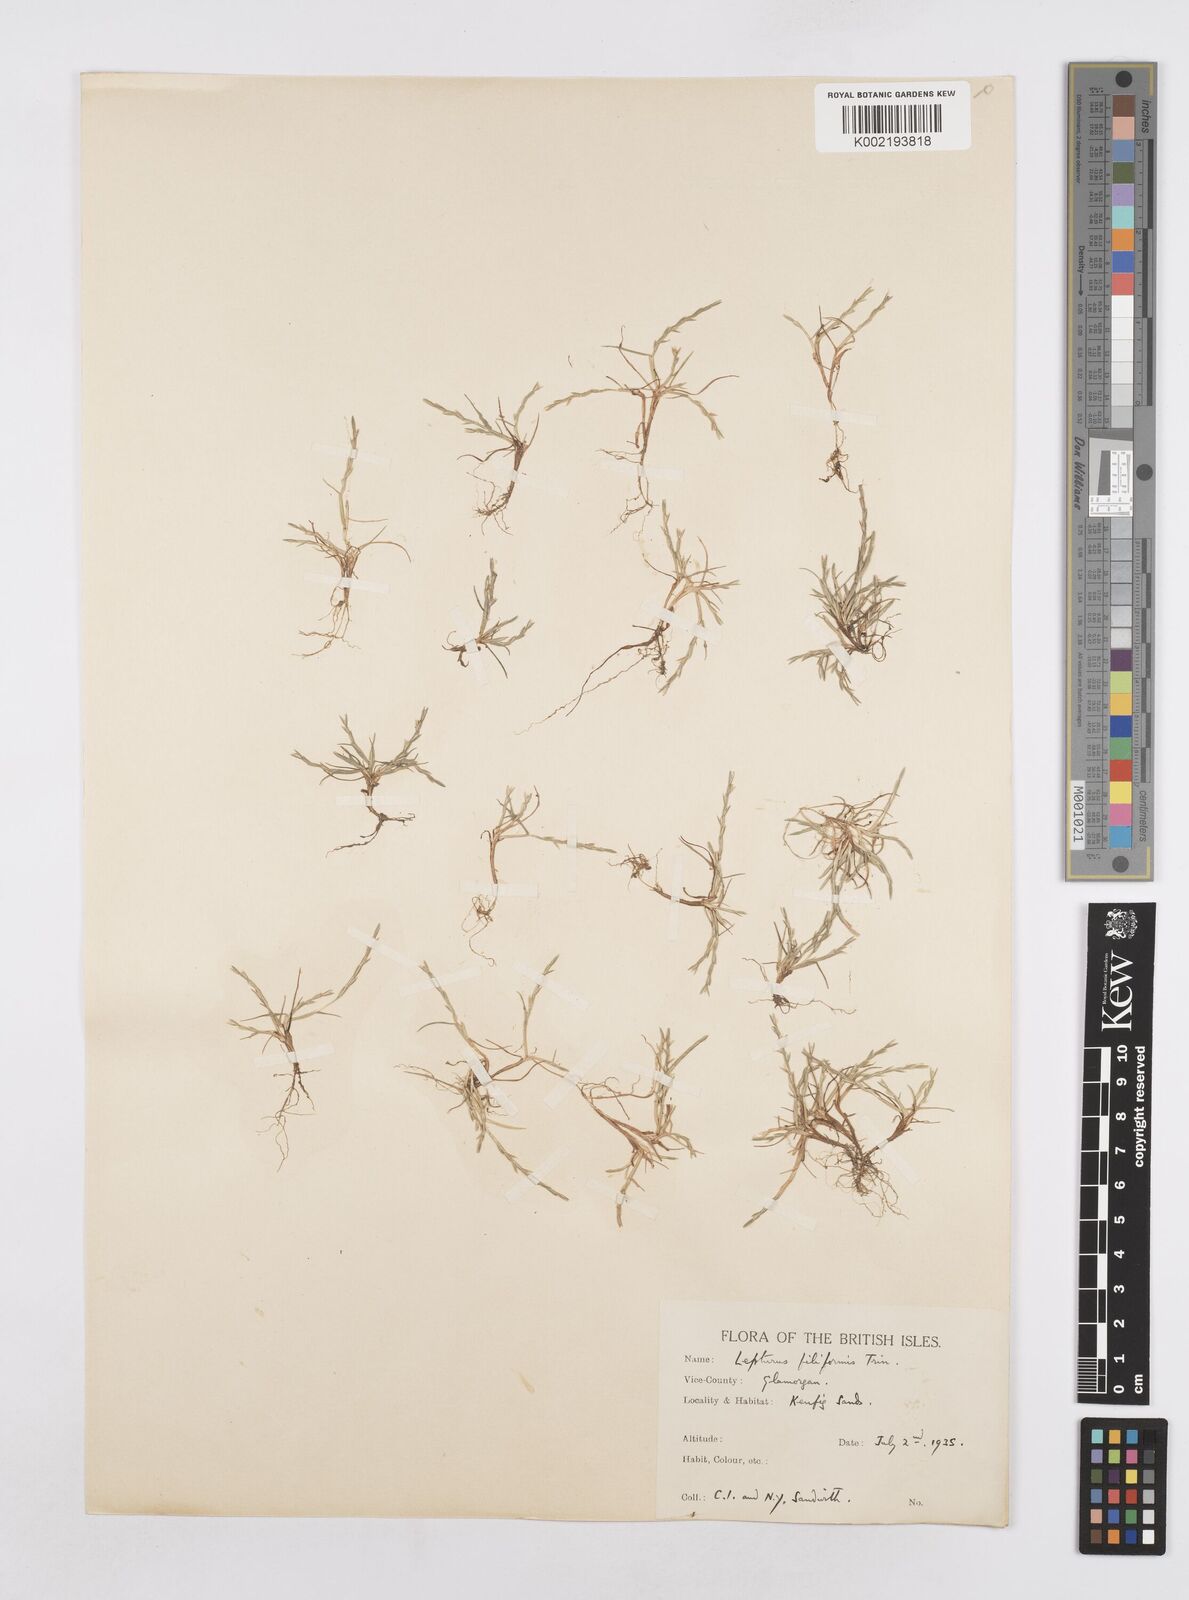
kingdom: Plantae
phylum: Tracheophyta
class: Liliopsida
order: Poales
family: Poaceae
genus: Parapholis
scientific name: Parapholis strigosa
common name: Hard-grass
